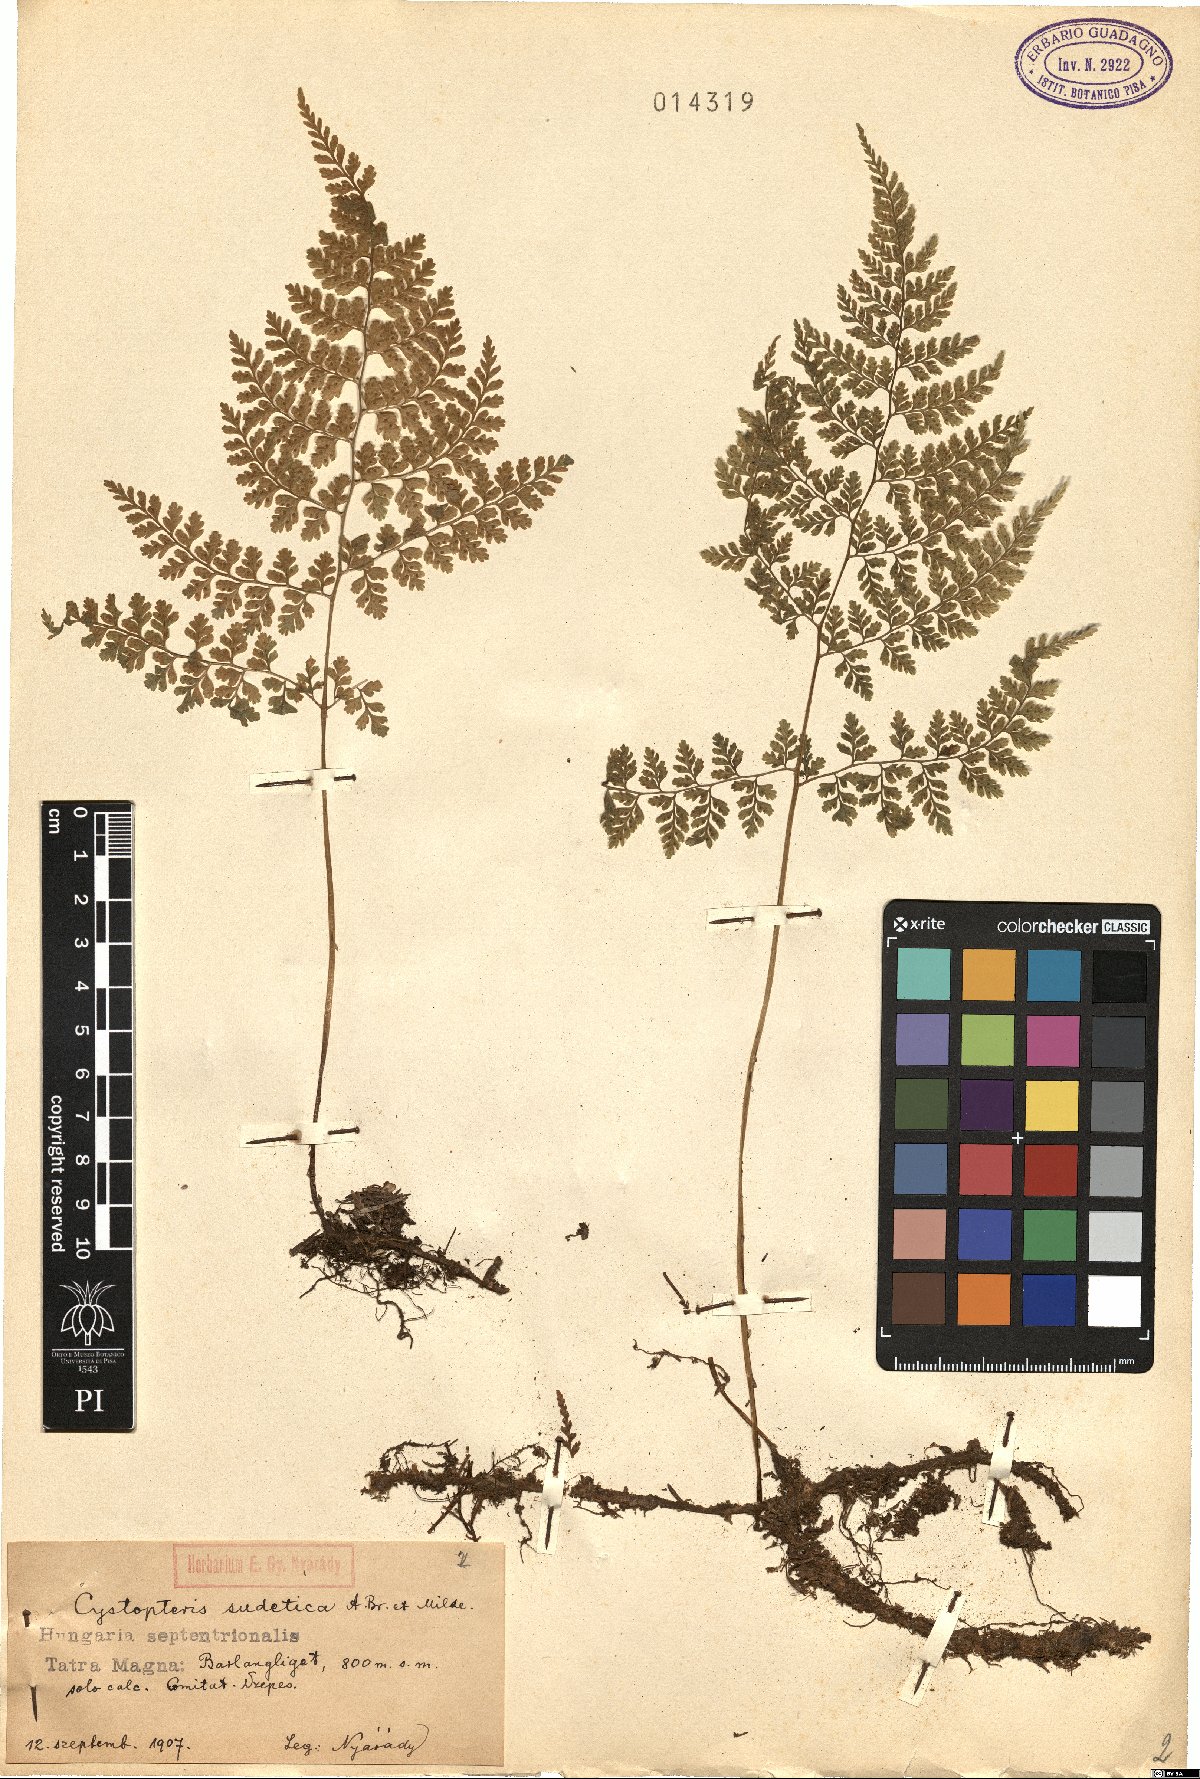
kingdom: Plantae
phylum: Tracheophyta
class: Polypodiopsida
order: Polypodiales
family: Cystopteridaceae
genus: Cystopteris
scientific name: Cystopteris sudetica
